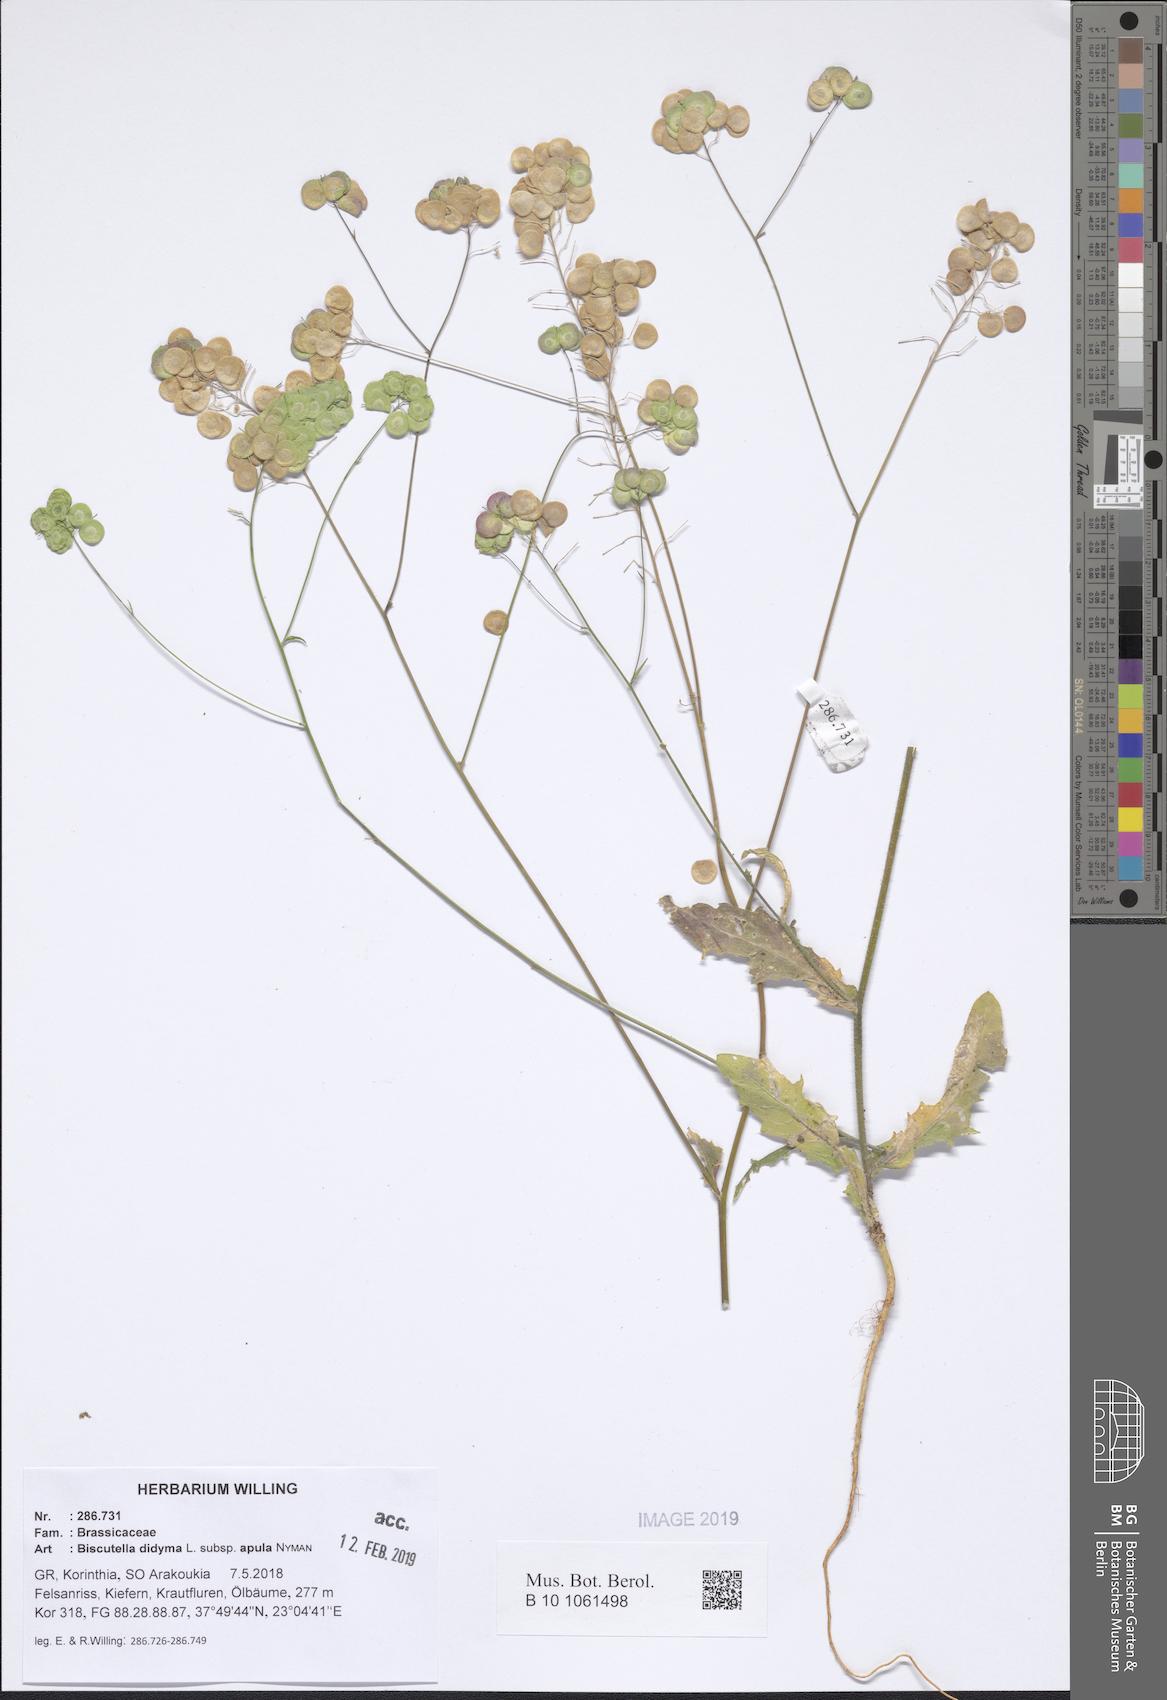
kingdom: Plantae
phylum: Tracheophyta
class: Magnoliopsida
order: Brassicales
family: Brassicaceae
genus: Biscutella
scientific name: Biscutella didyma
